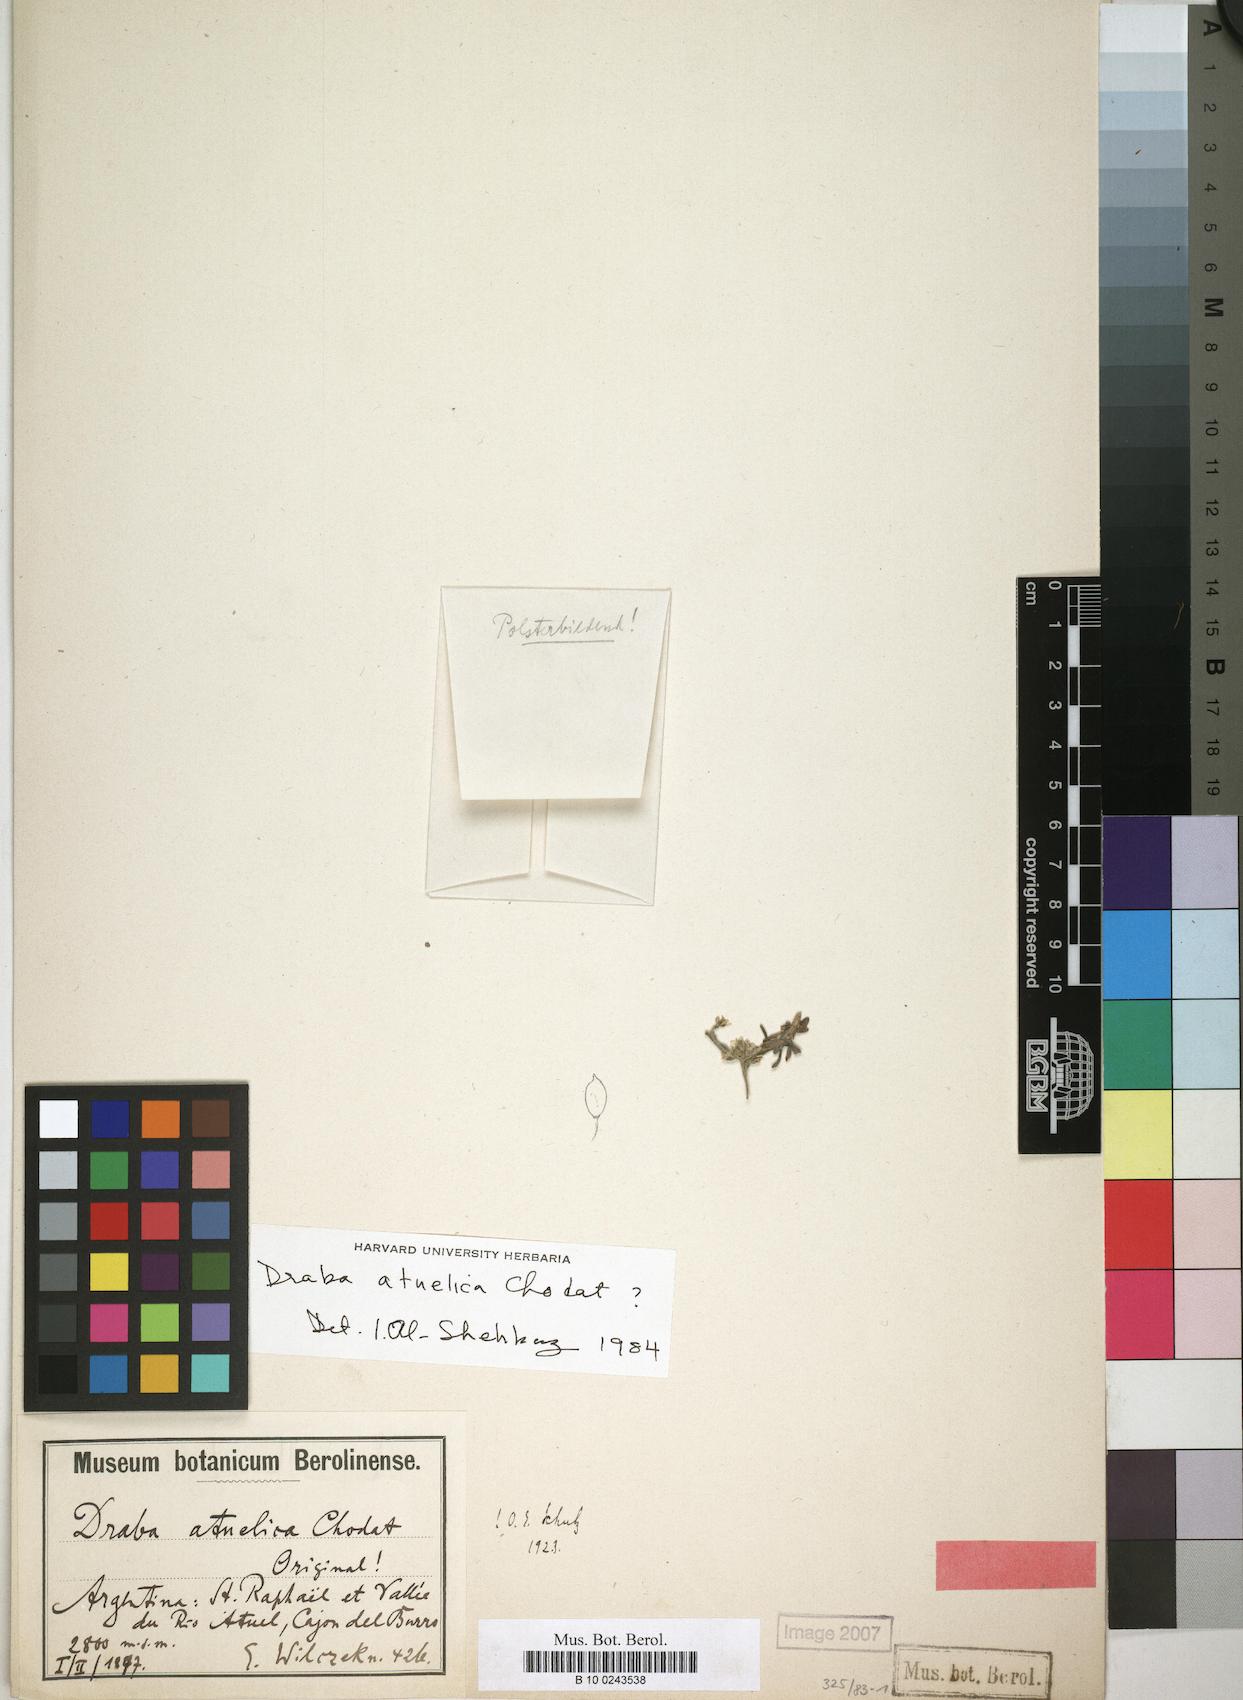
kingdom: Plantae
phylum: Tracheophyta
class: Magnoliopsida
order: Brassicales
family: Brassicaceae
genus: Draba
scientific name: Draba magellanica
